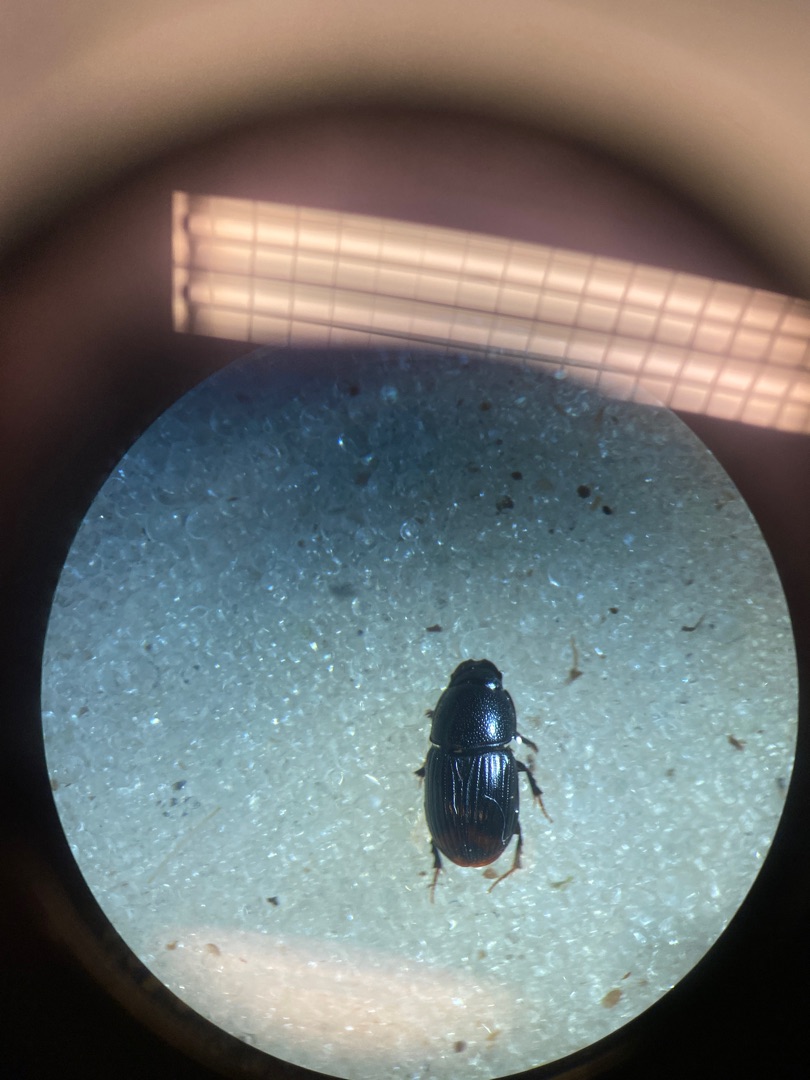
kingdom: Animalia
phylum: Arthropoda
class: Insecta
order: Coleoptera
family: Scarabaeidae
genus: Otophorus
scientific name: Otophorus haemorrhoidalis
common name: Rødhalet møgbille
